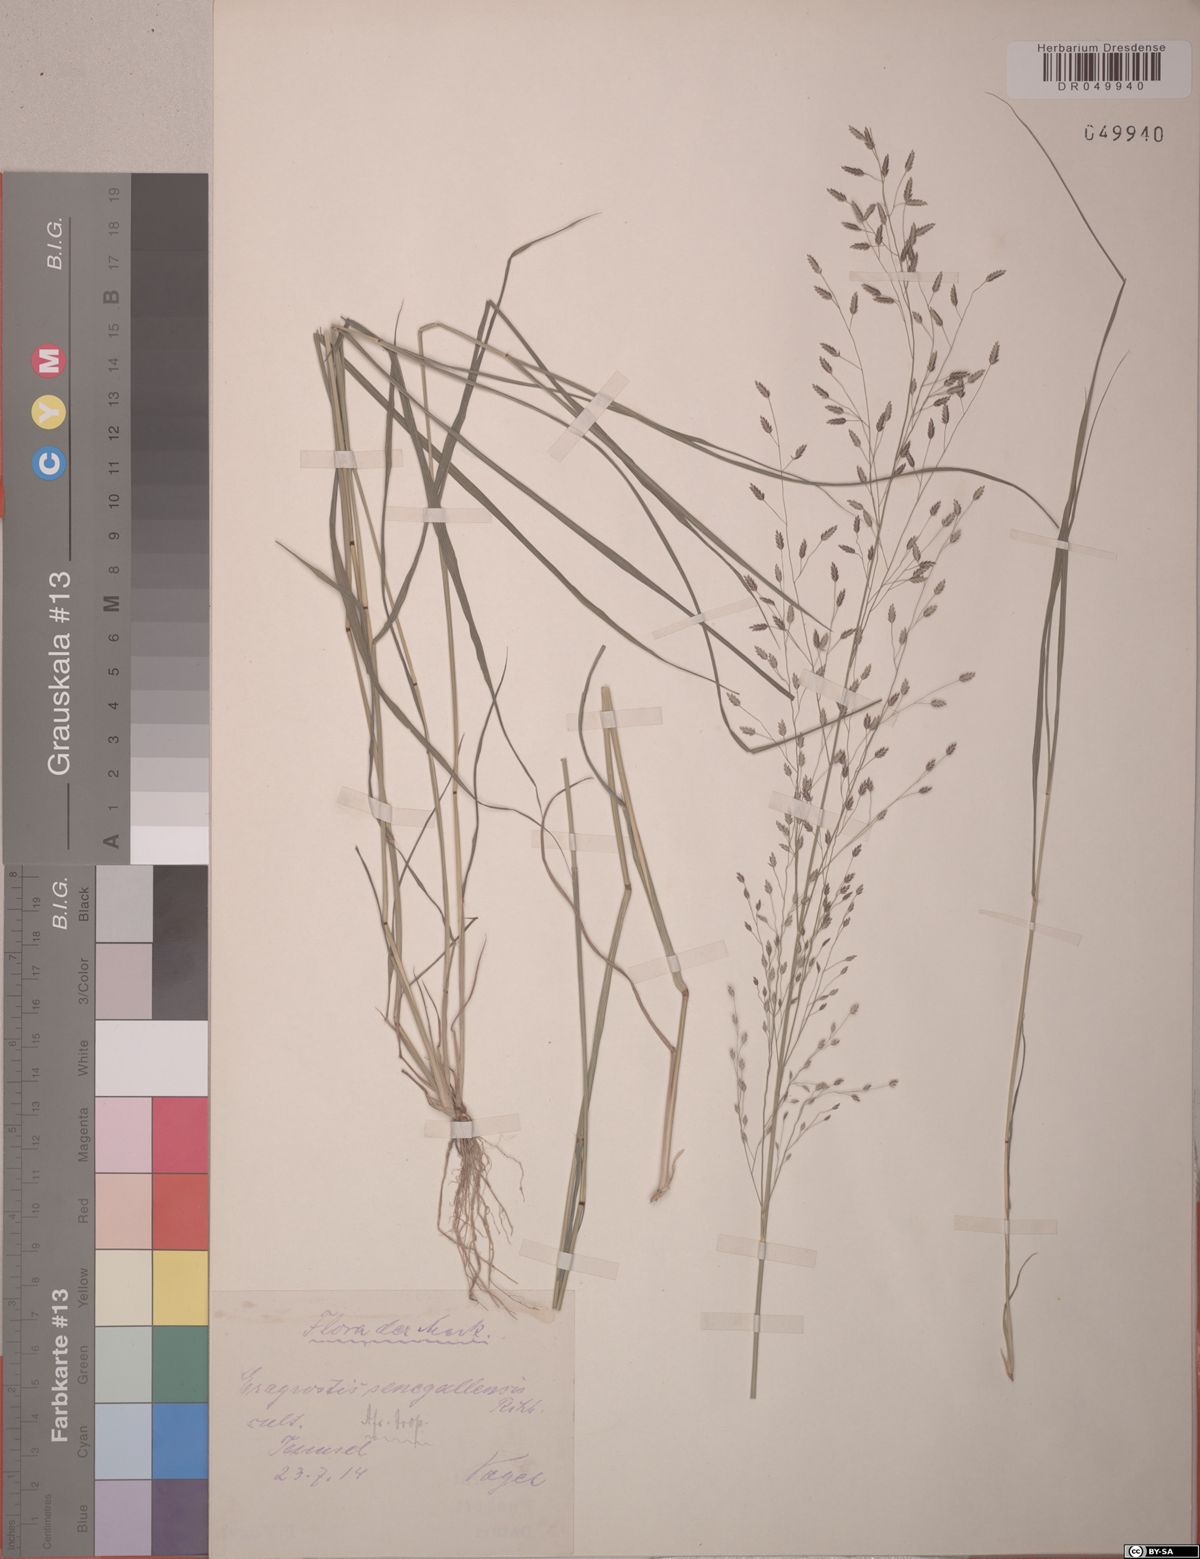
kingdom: Plantae
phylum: Tracheophyta
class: Liliopsida
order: Poales
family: Poaceae
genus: Eragrostis
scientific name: Eragrostis aegyptiaca
